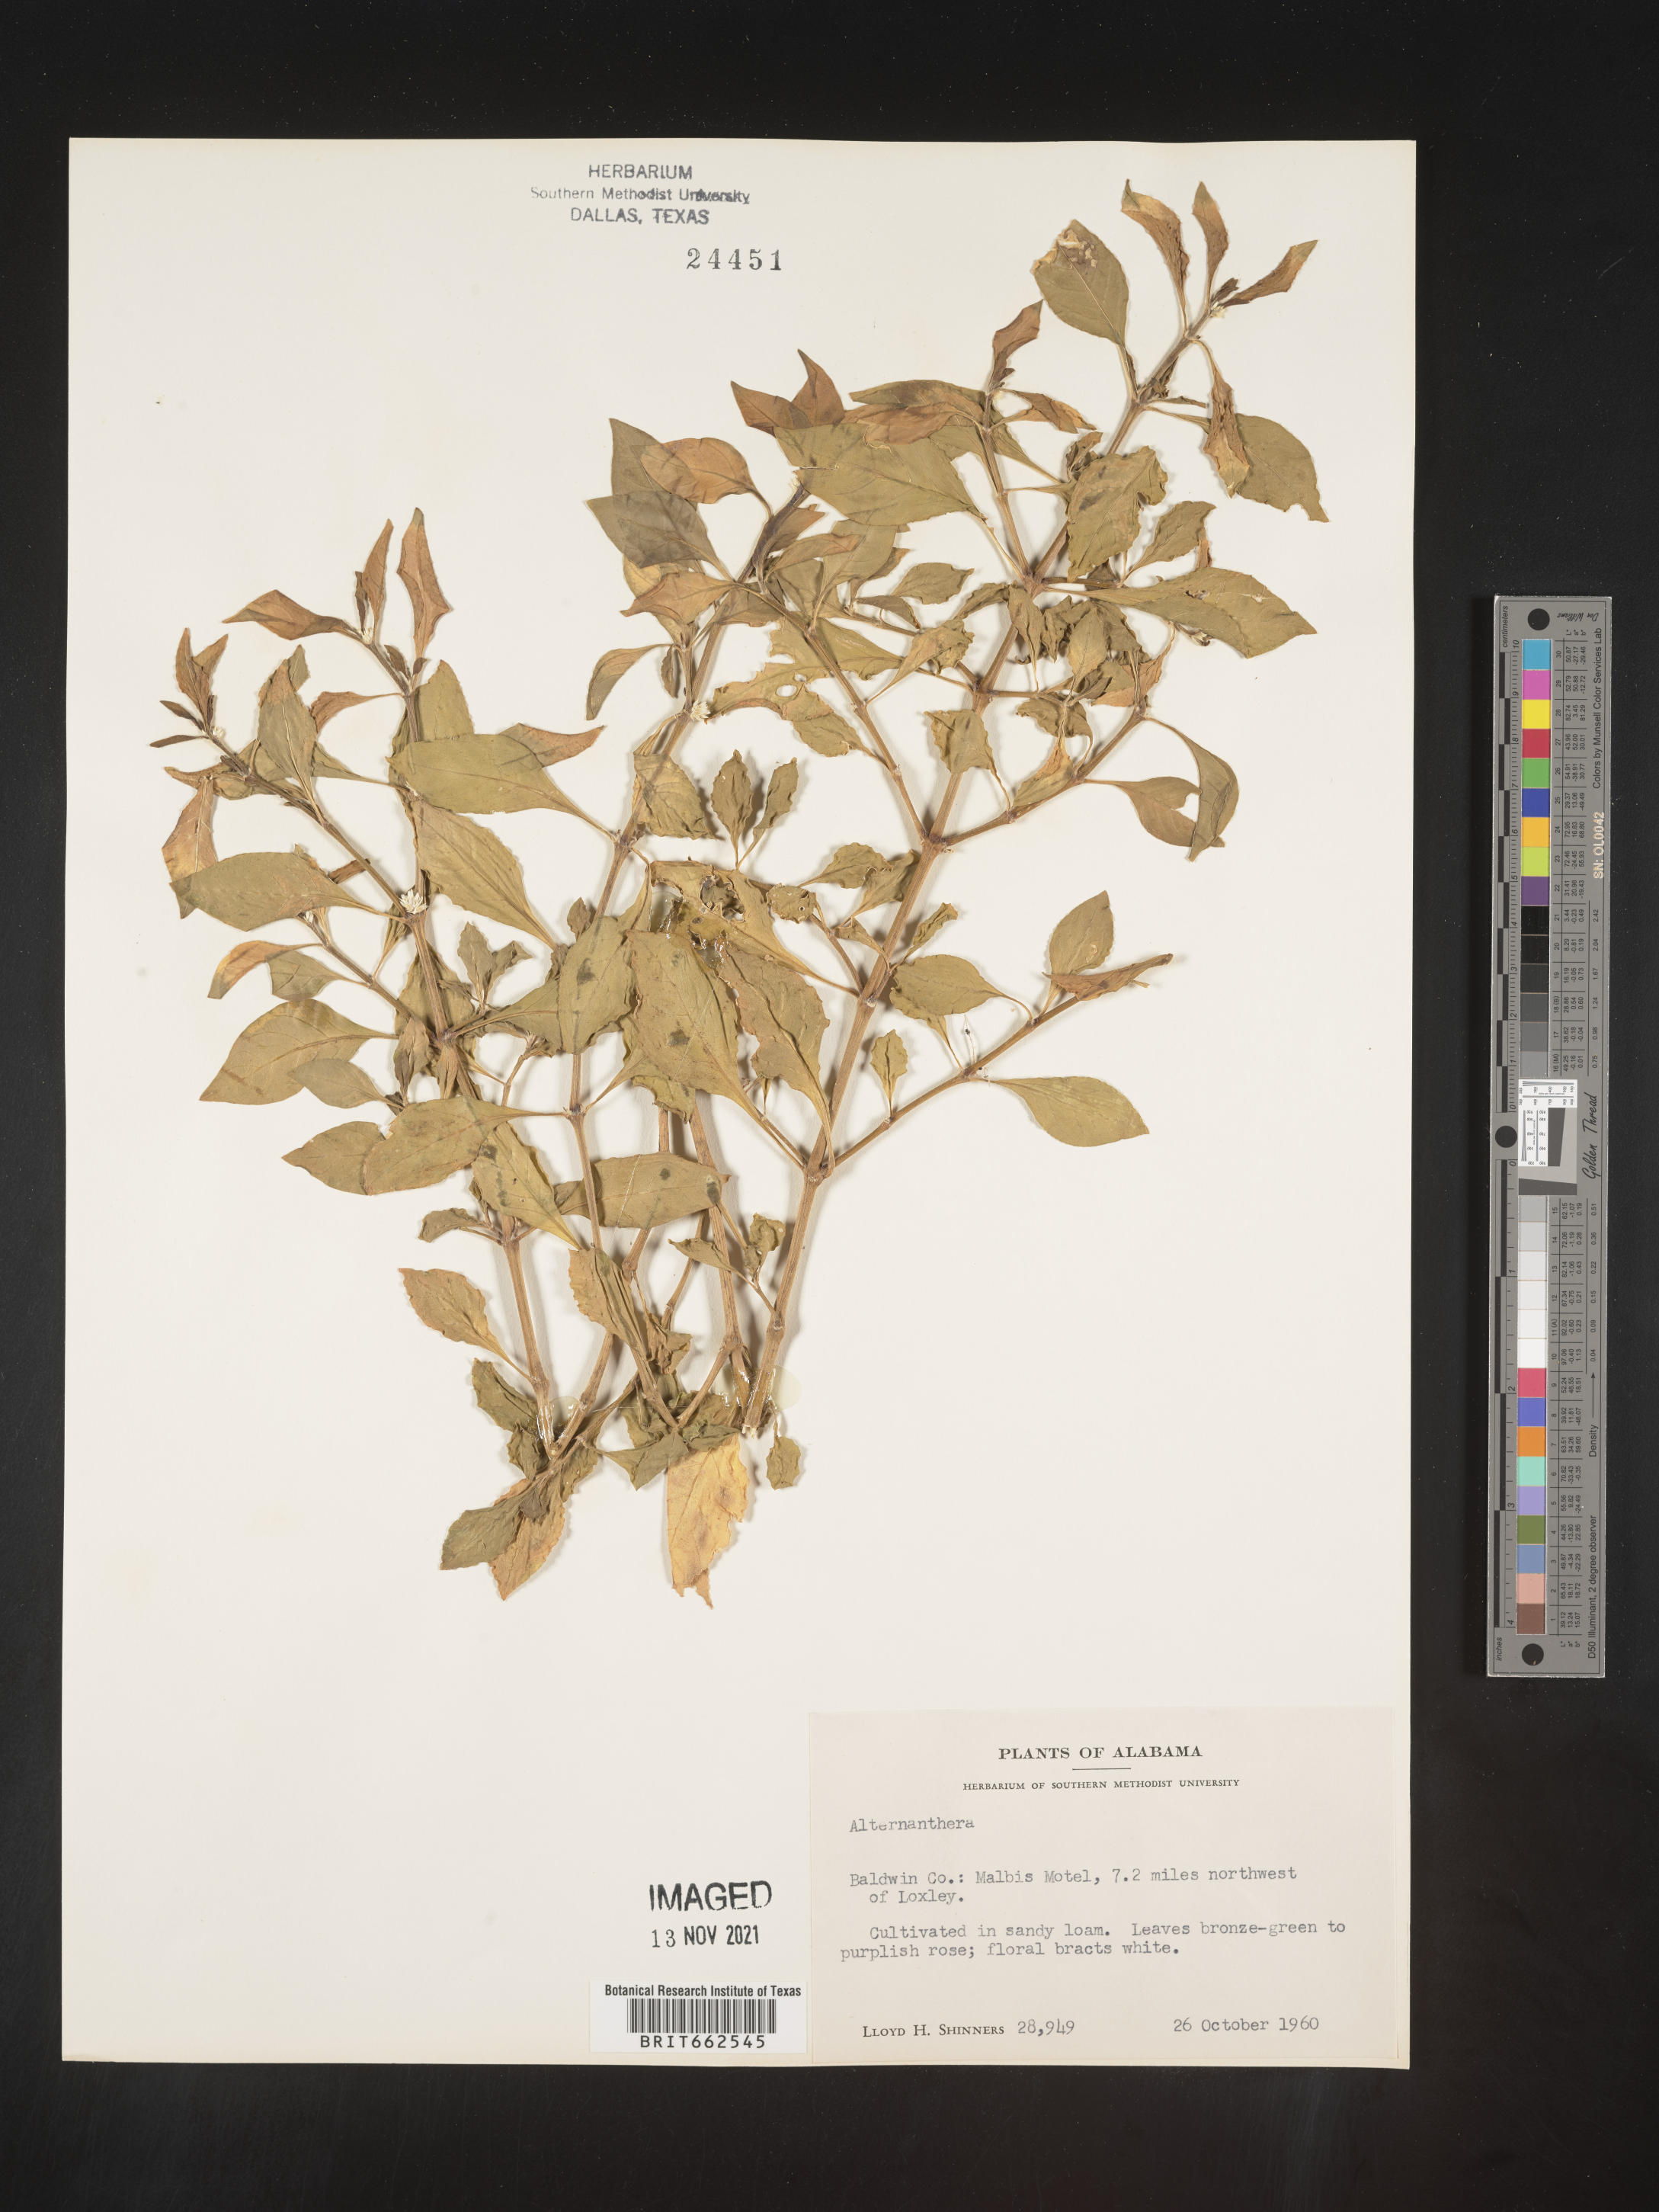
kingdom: Plantae
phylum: Tracheophyta
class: Magnoliopsida
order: Caryophyllales
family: Amaranthaceae
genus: Alternanthera
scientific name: Alternanthera
